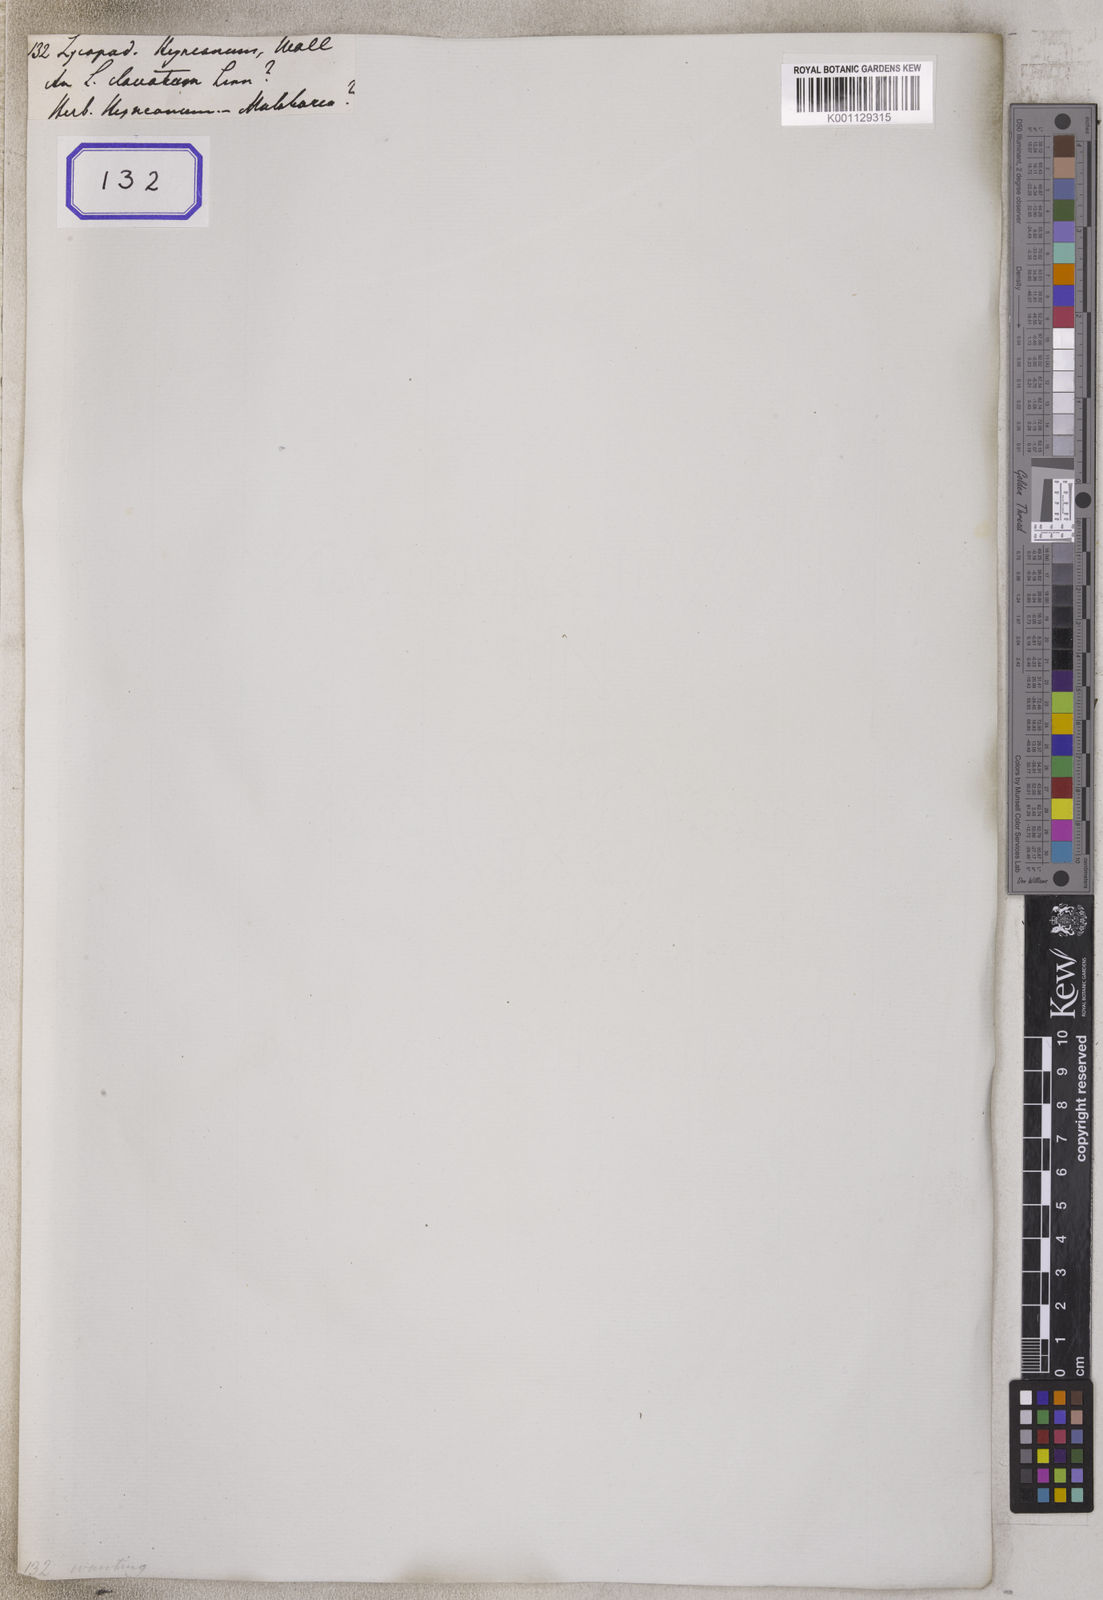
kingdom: Plantae
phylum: Tracheophyta
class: Lycopodiopsida
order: Lycopodiales
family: Lycopodiaceae
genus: Lycopodium
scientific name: Lycopodium heyneanum
